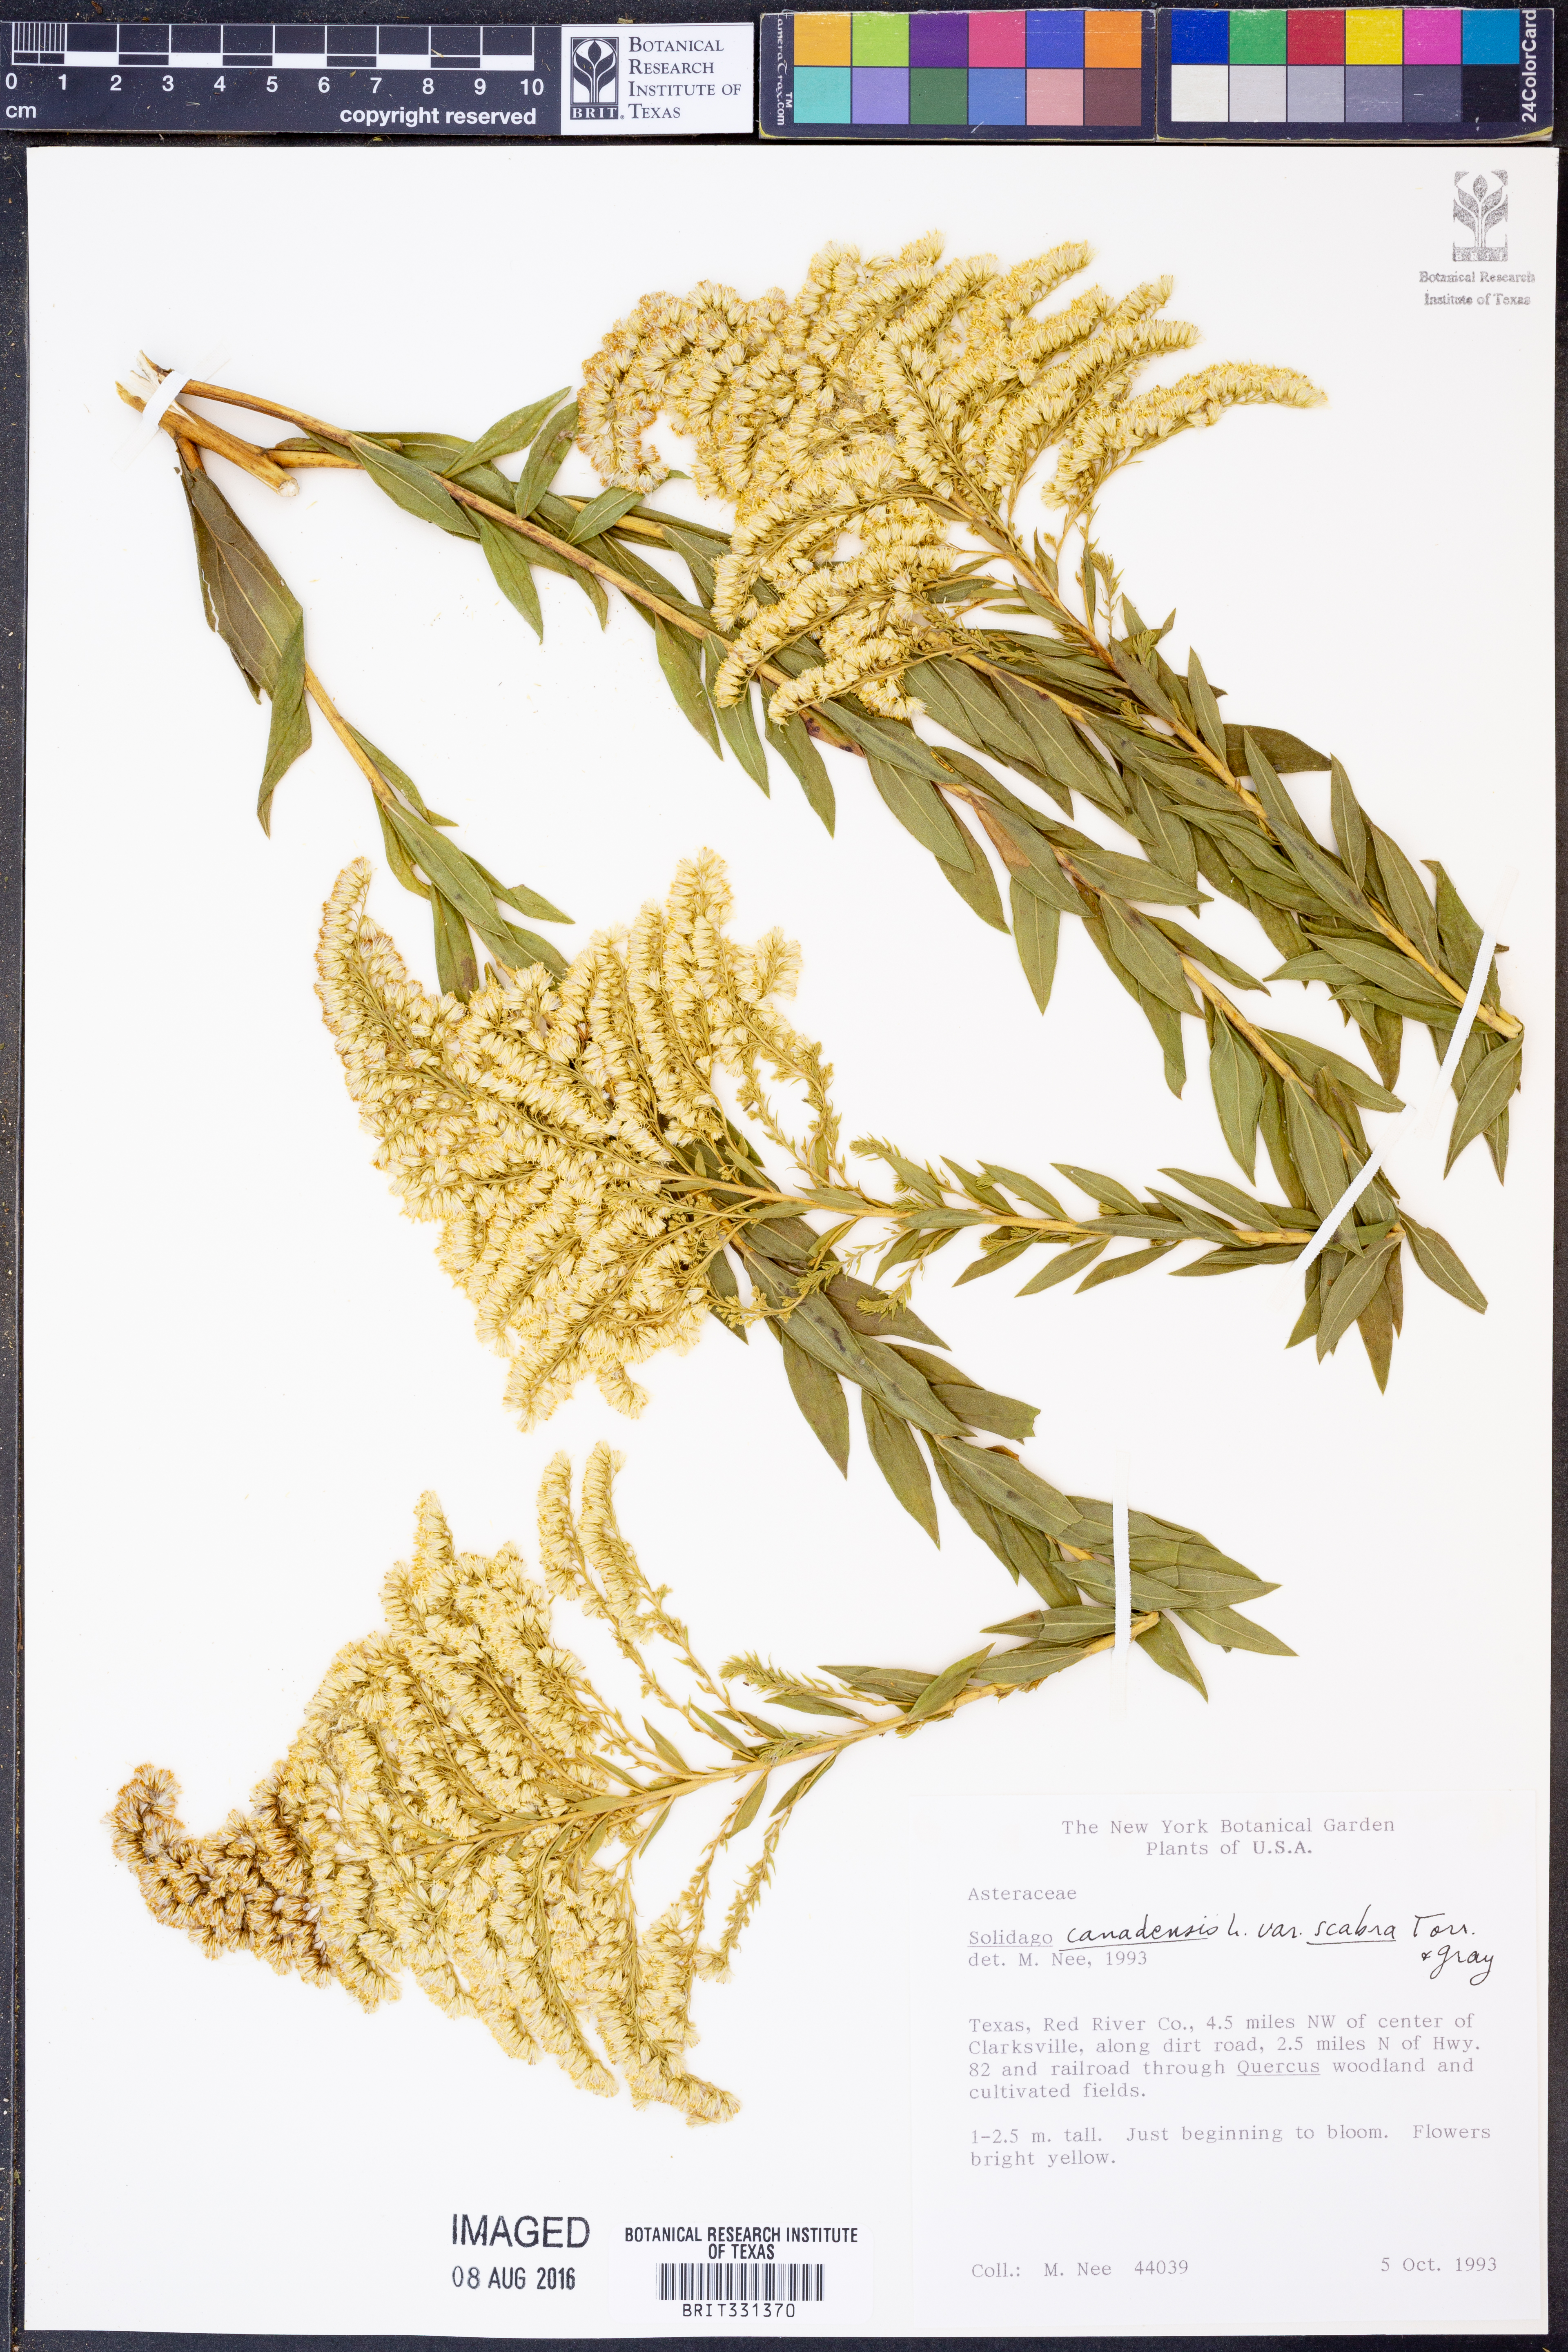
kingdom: Plantae
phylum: Tracheophyta
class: Magnoliopsida
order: Asterales
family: Asteraceae
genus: Solidago
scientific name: Solidago altissima
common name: Late goldenrod
